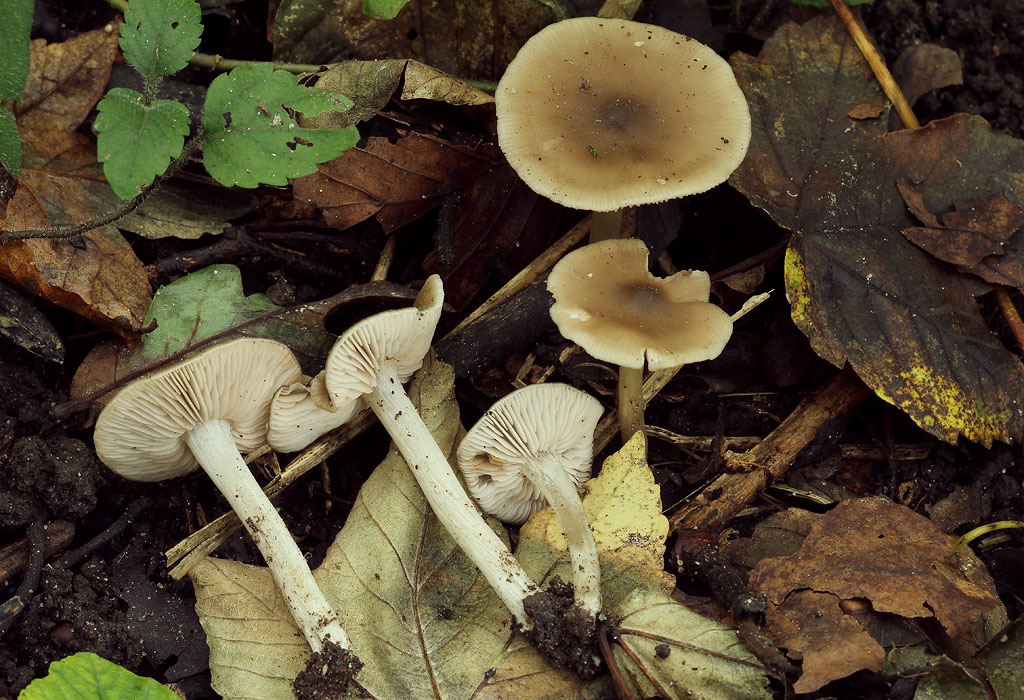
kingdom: Fungi
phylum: Basidiomycota
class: Agaricomycetes
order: Agaricales
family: Entolomataceae
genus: Entoloma
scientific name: Entoloma sericatum
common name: rank rødblad
